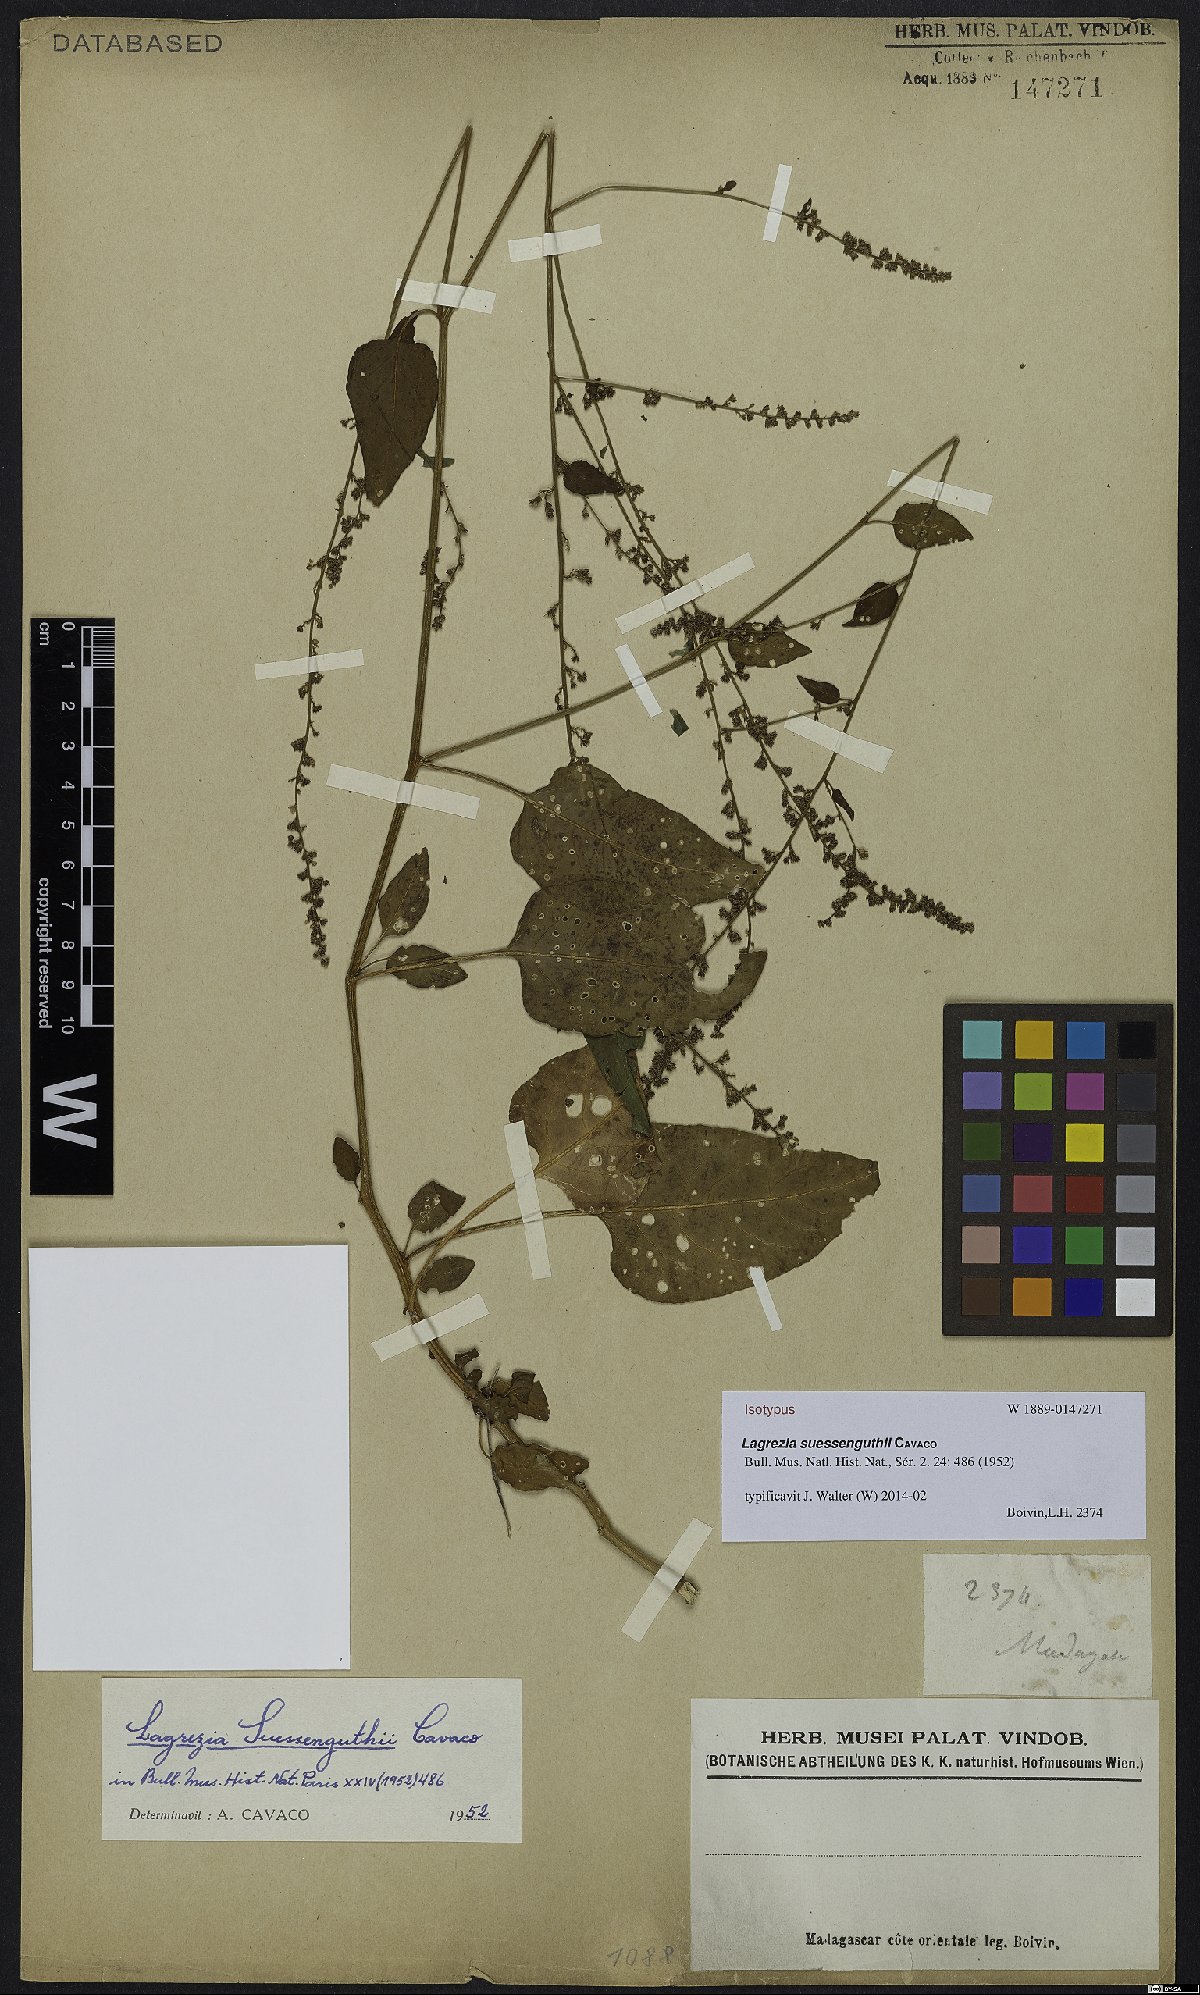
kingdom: Plantae
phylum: Tracheophyta
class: Magnoliopsida
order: Caryophyllales
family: Amaranthaceae
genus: Lagrezia
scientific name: Lagrezia suessenguthii
